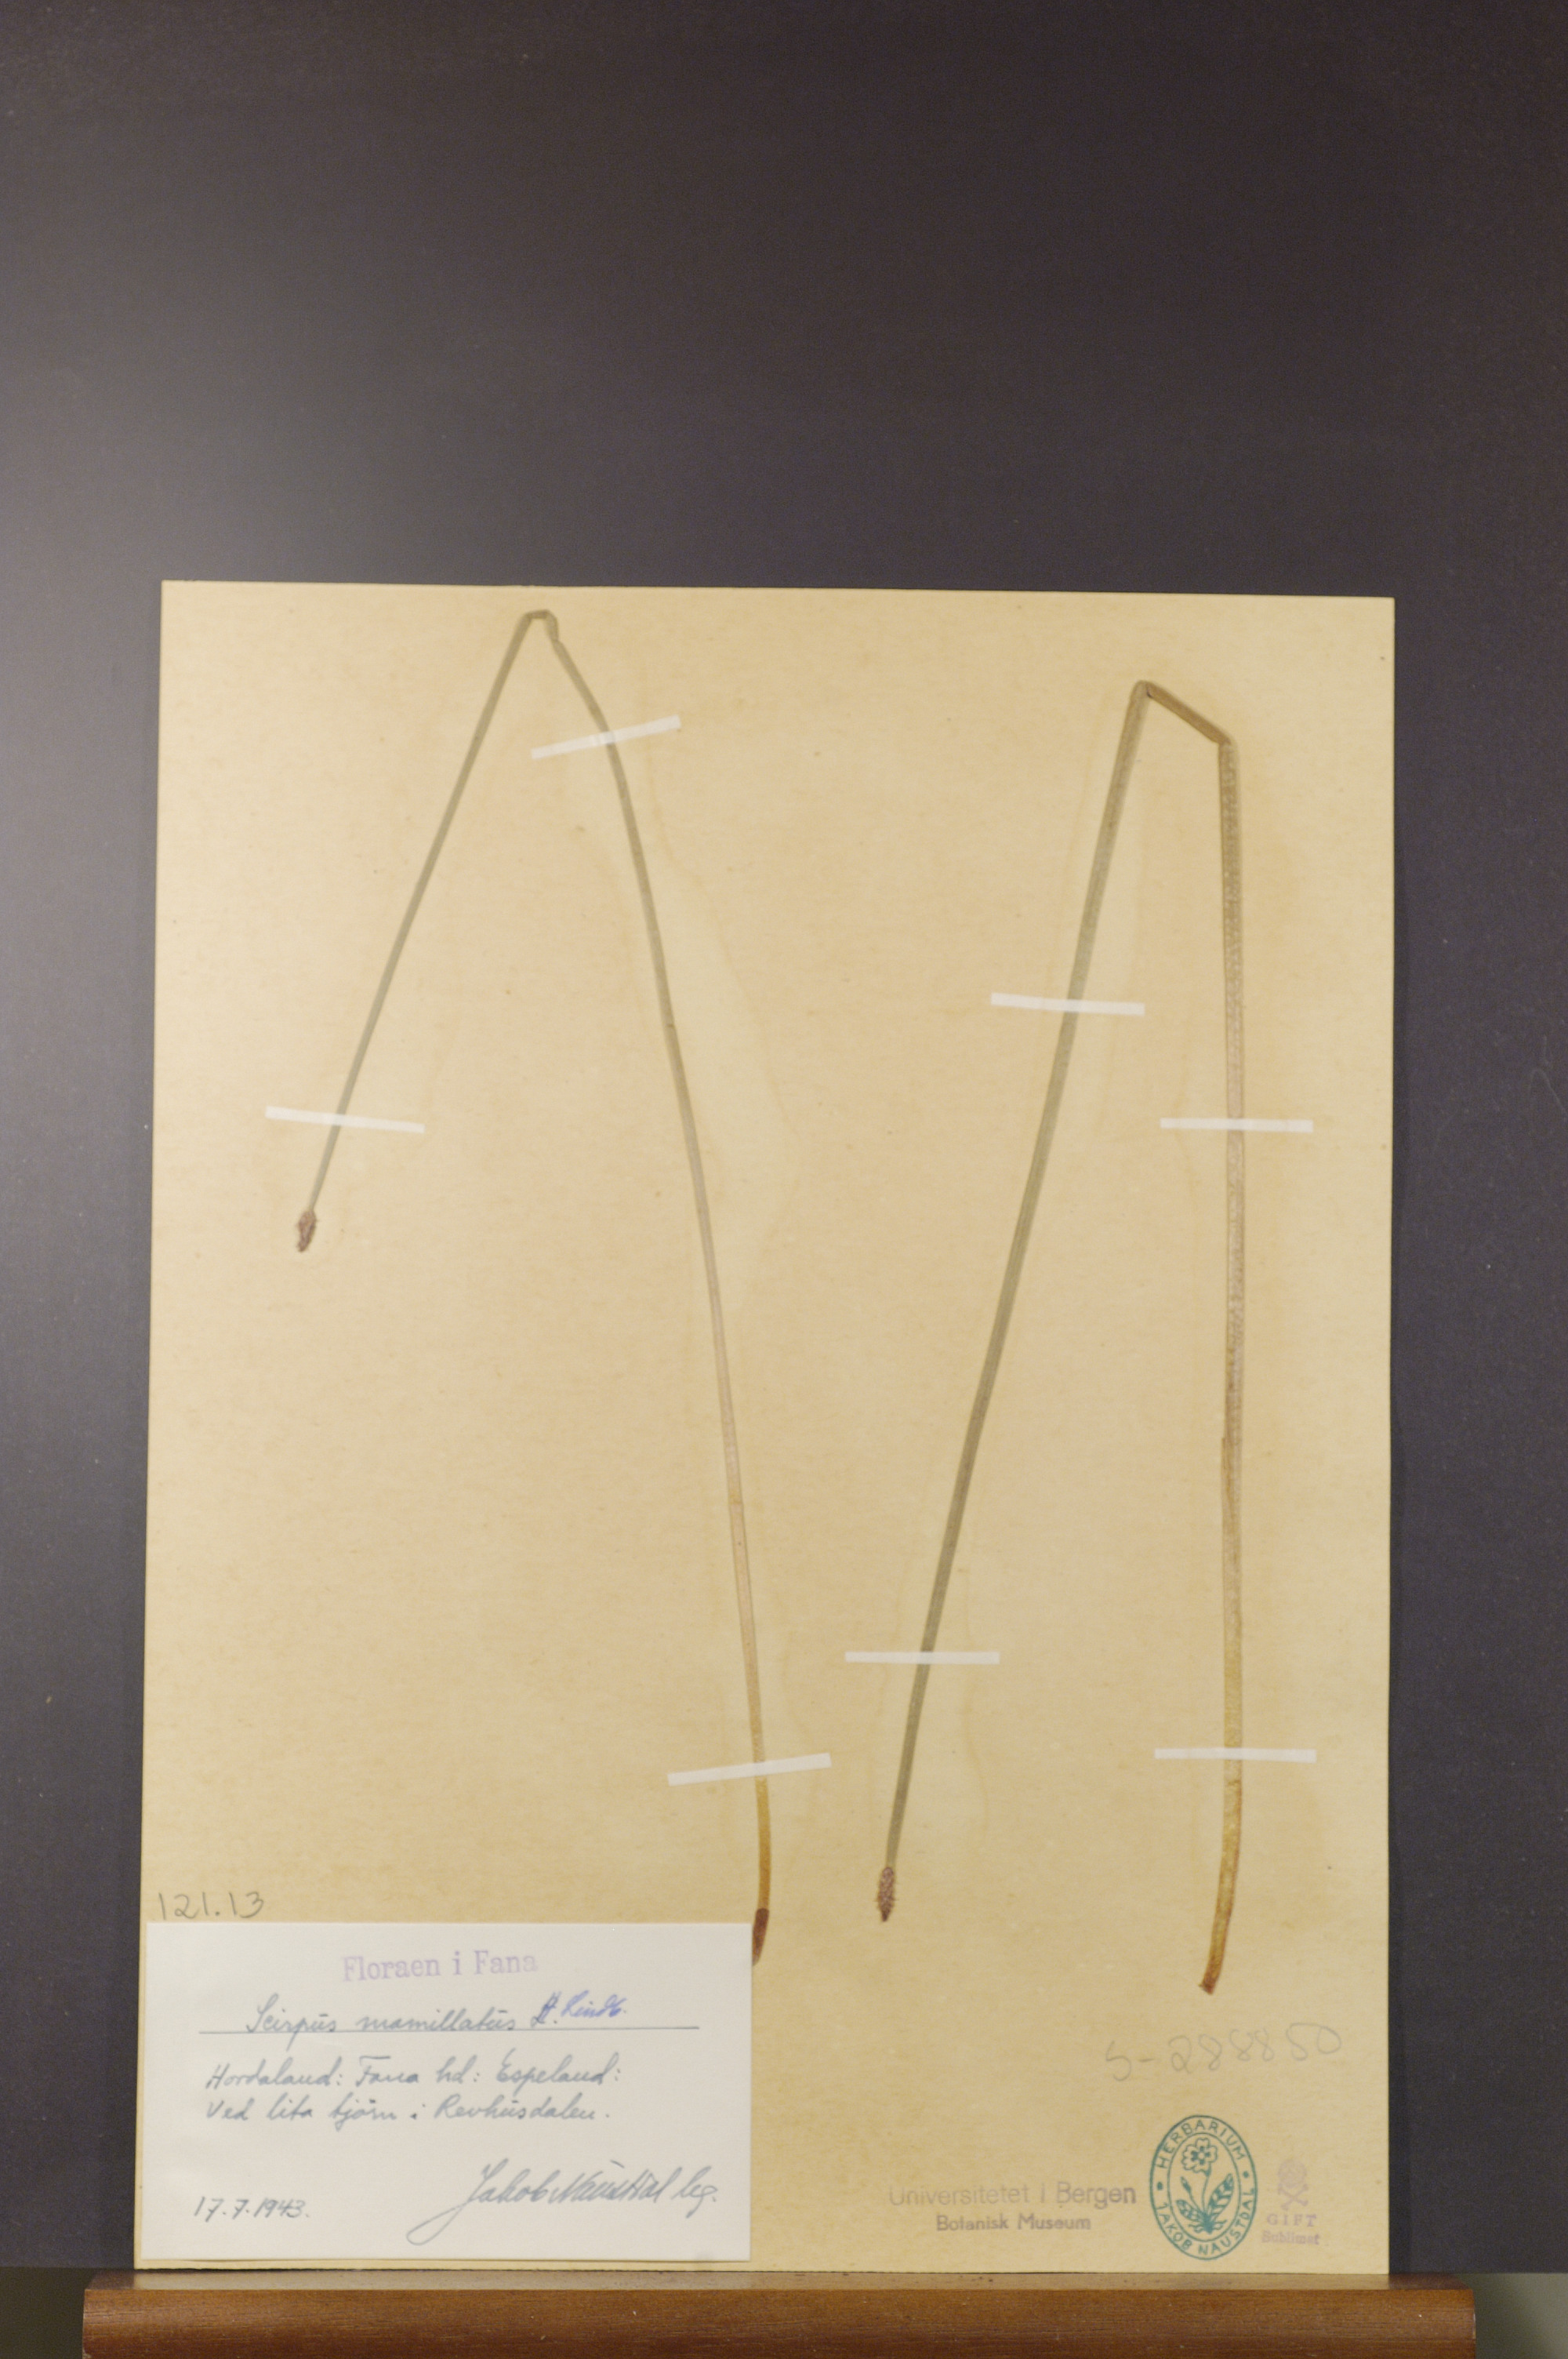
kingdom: Plantae
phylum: Tracheophyta
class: Liliopsida
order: Poales
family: Cyperaceae
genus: Eleocharis
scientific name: Eleocharis mamillata
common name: Northern spike-rush
